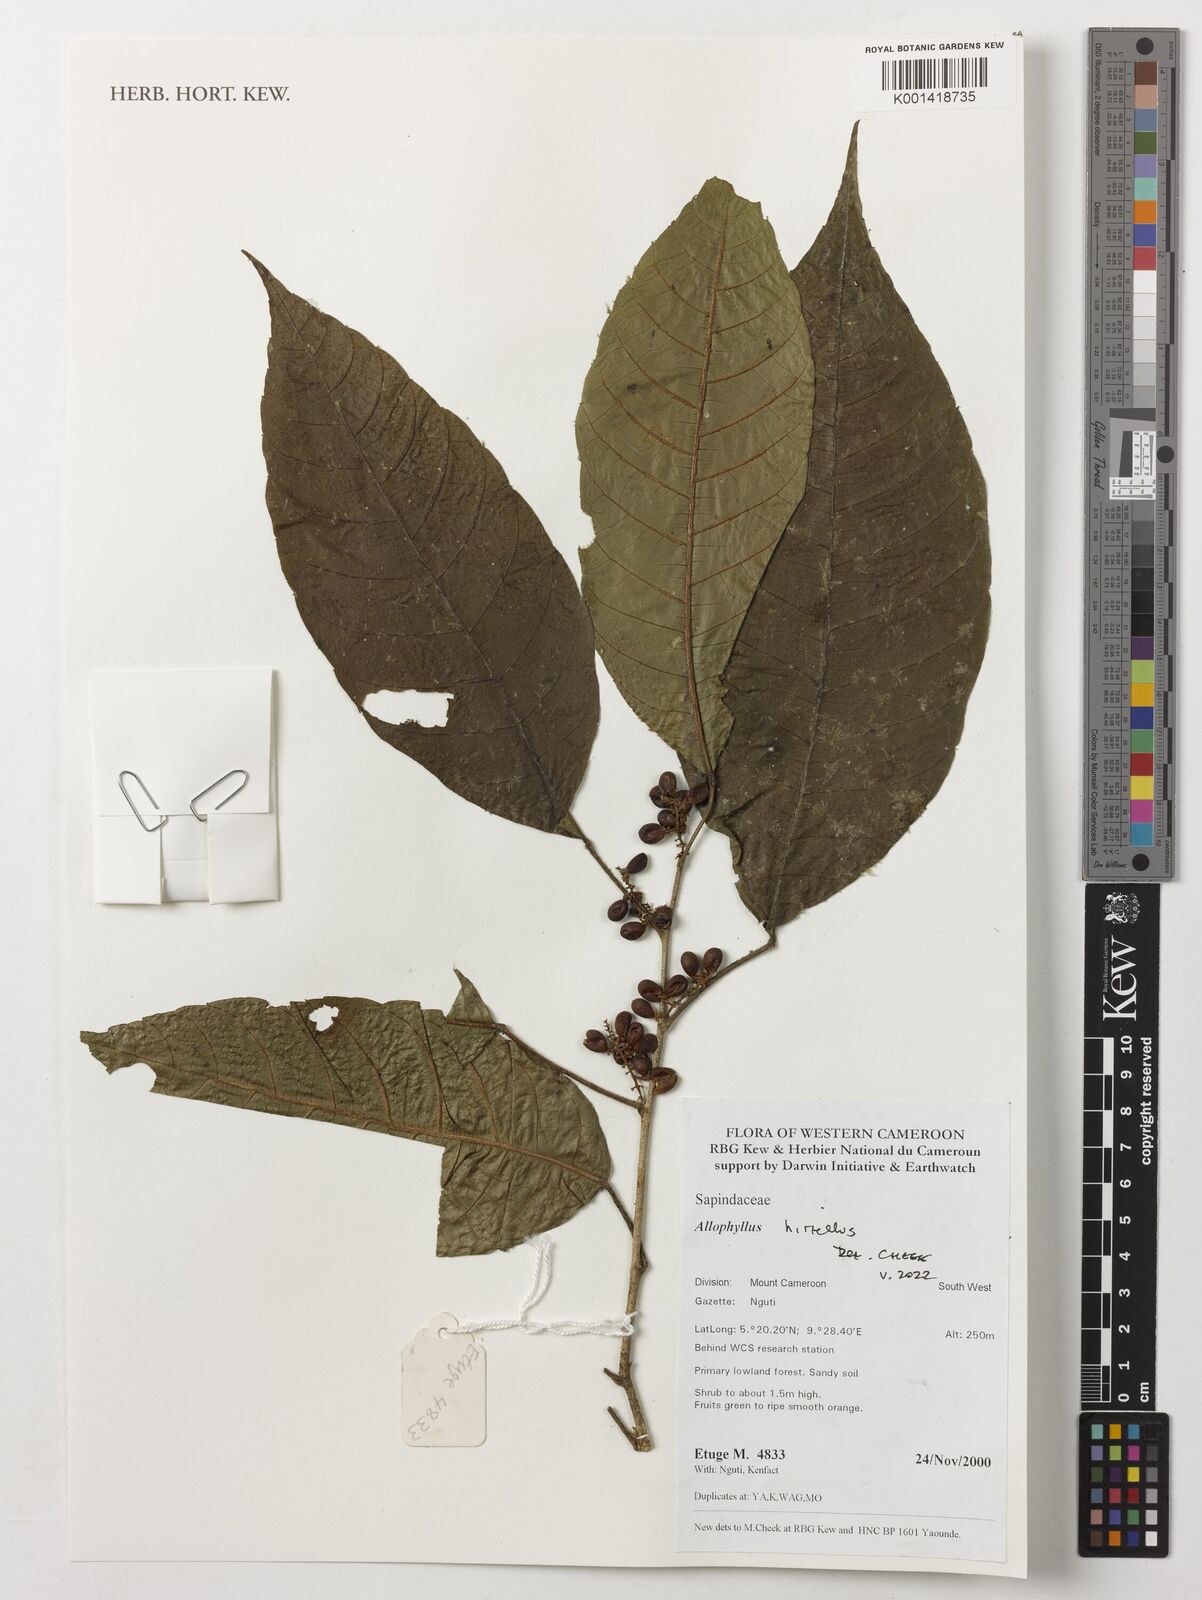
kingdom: Plantae
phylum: Tracheophyta
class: Magnoliopsida
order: Sapindales
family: Sapindaceae
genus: Allophylus
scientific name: Allophylus hirtellus
